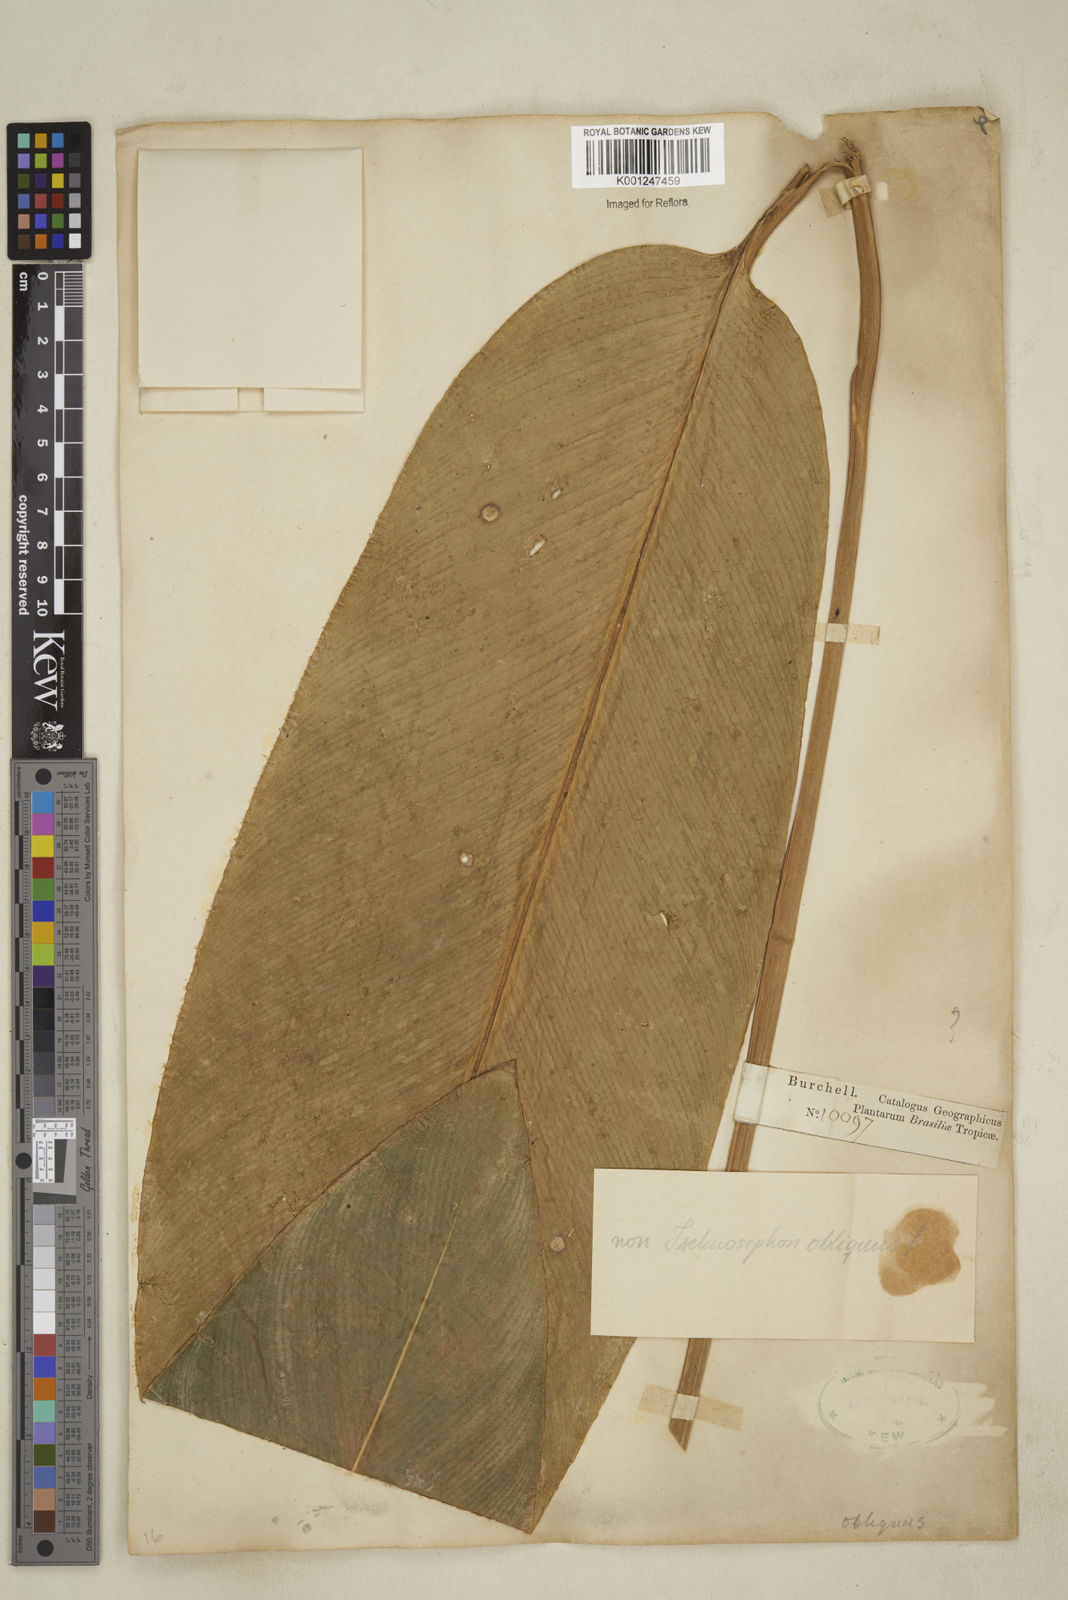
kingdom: Plantae
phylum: Tracheophyta
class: Liliopsida
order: Zingiberales
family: Marantaceae
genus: Ischnosiphon
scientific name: Ischnosiphon
